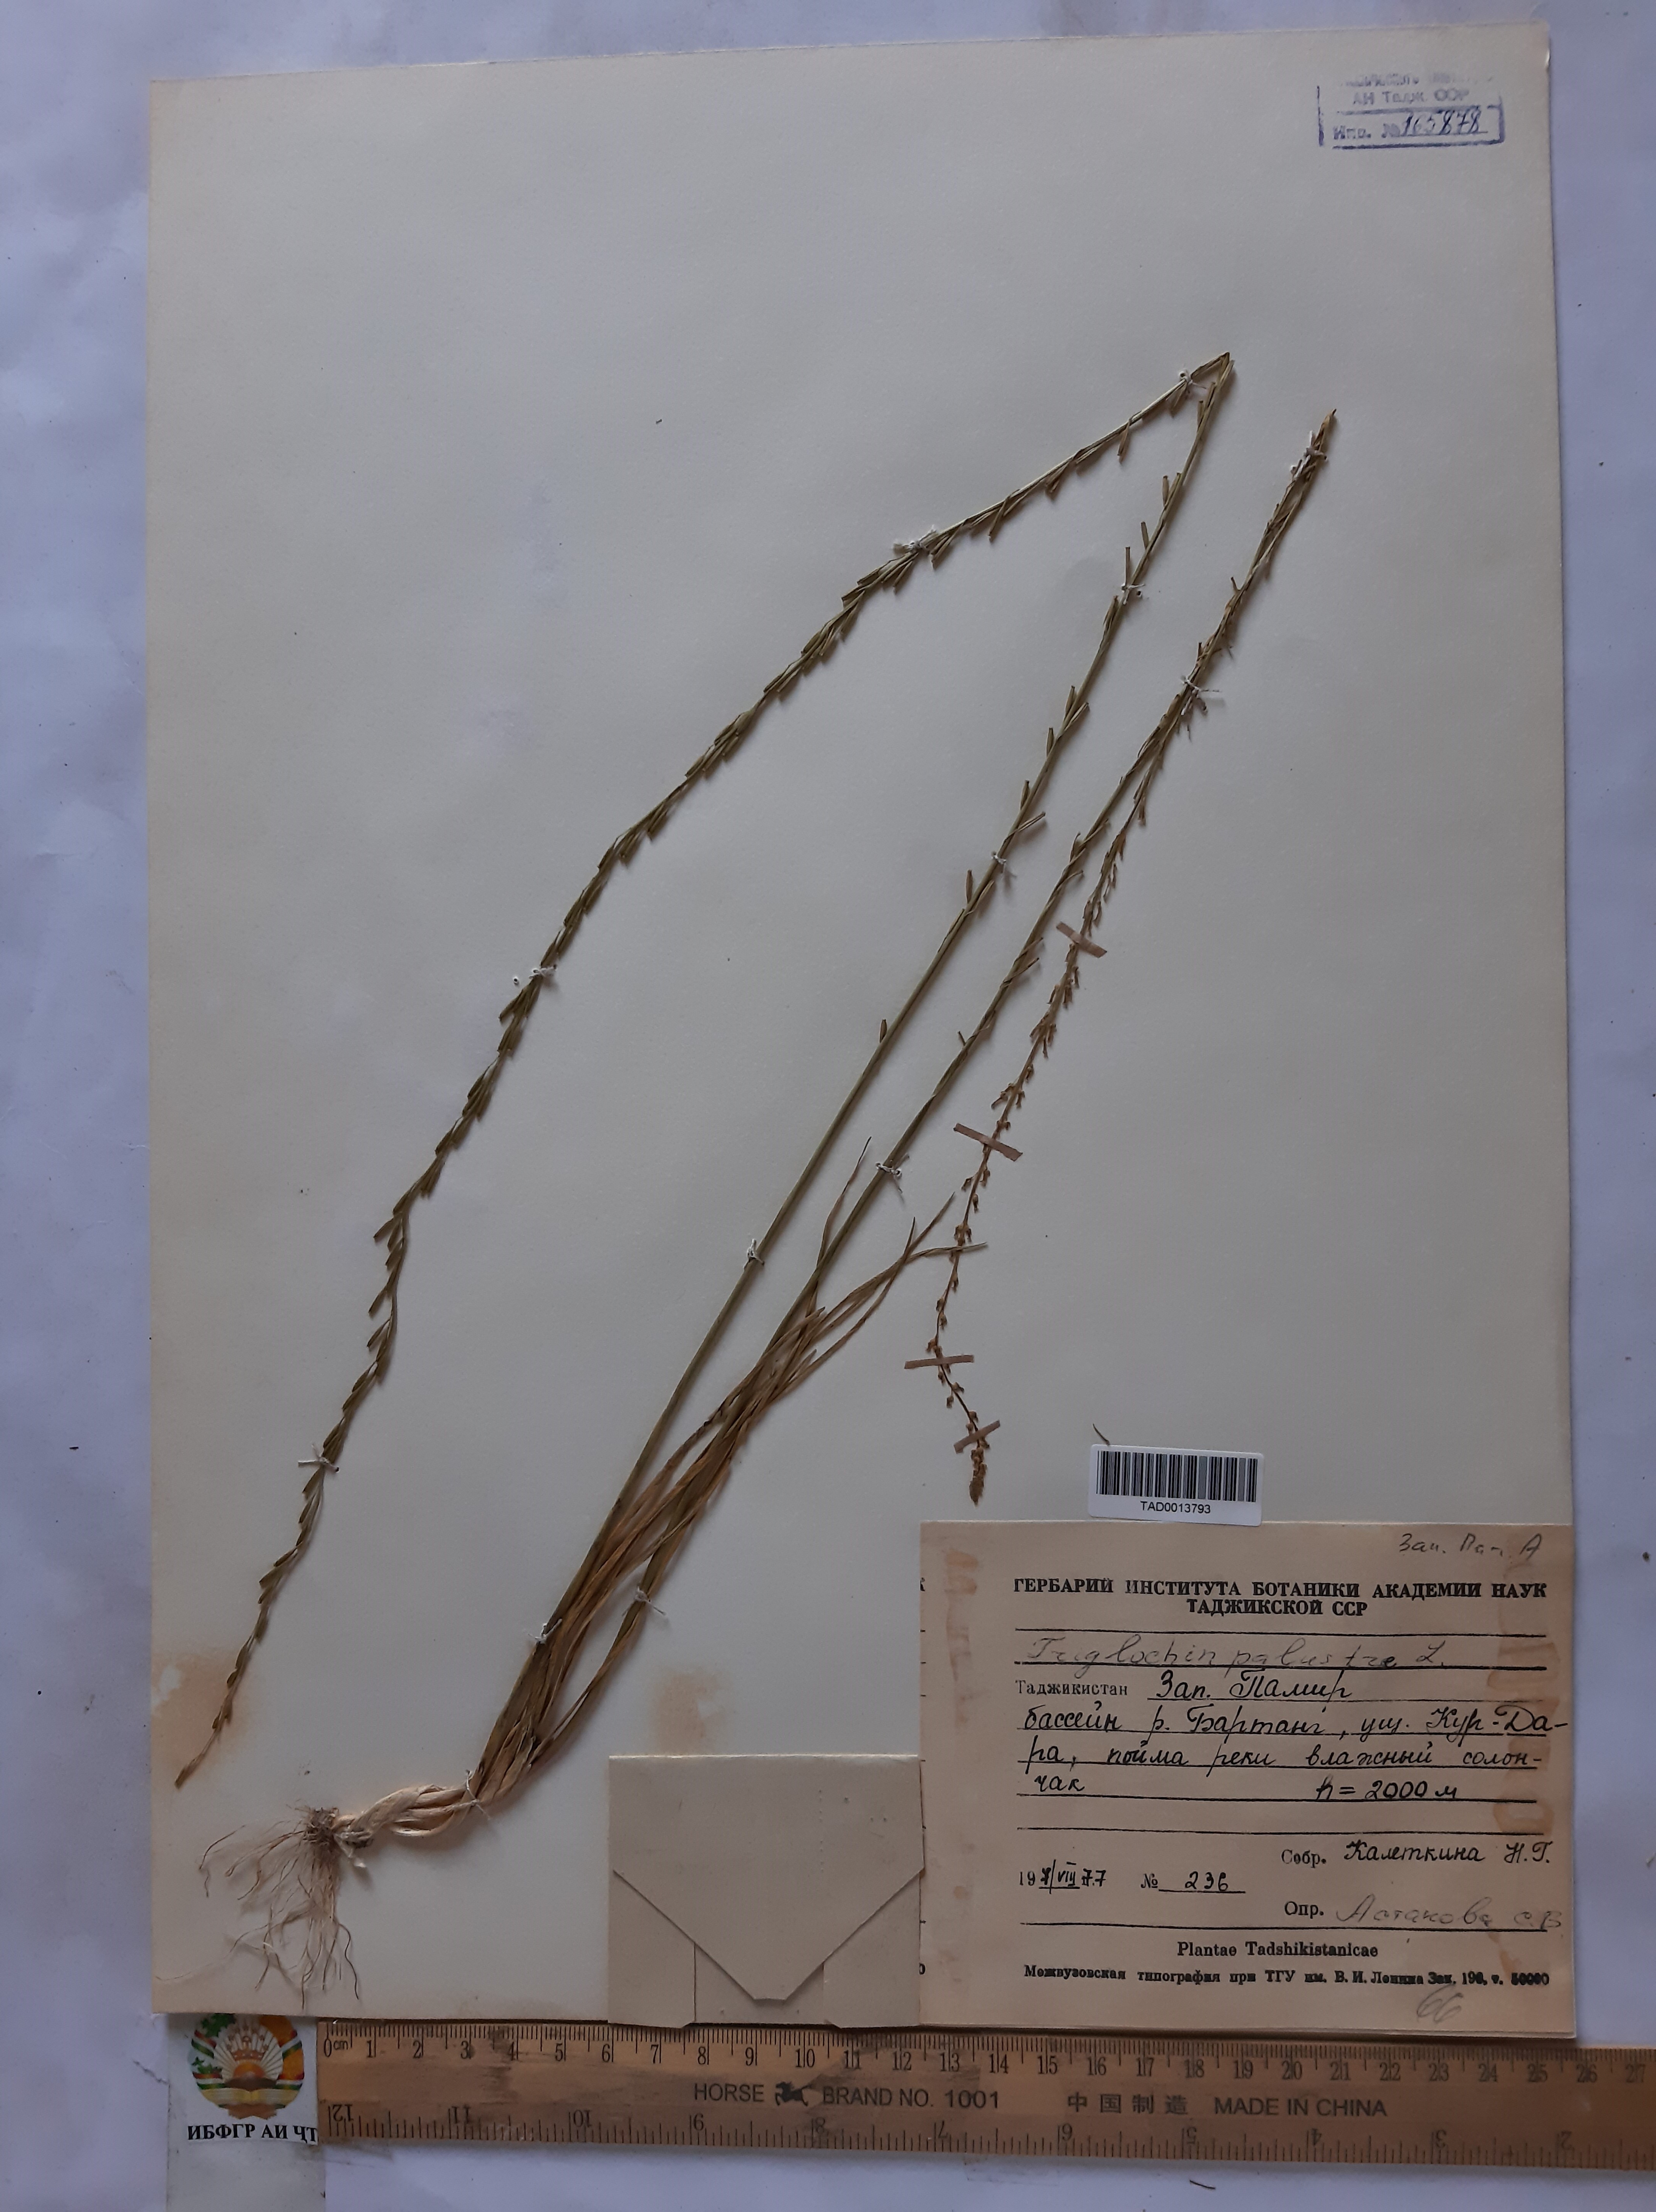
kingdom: Plantae
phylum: Tracheophyta
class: Liliopsida
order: Alismatales
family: Juncaginaceae
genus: Triglochin
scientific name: Triglochin palustris
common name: Marsh arrowgrass
